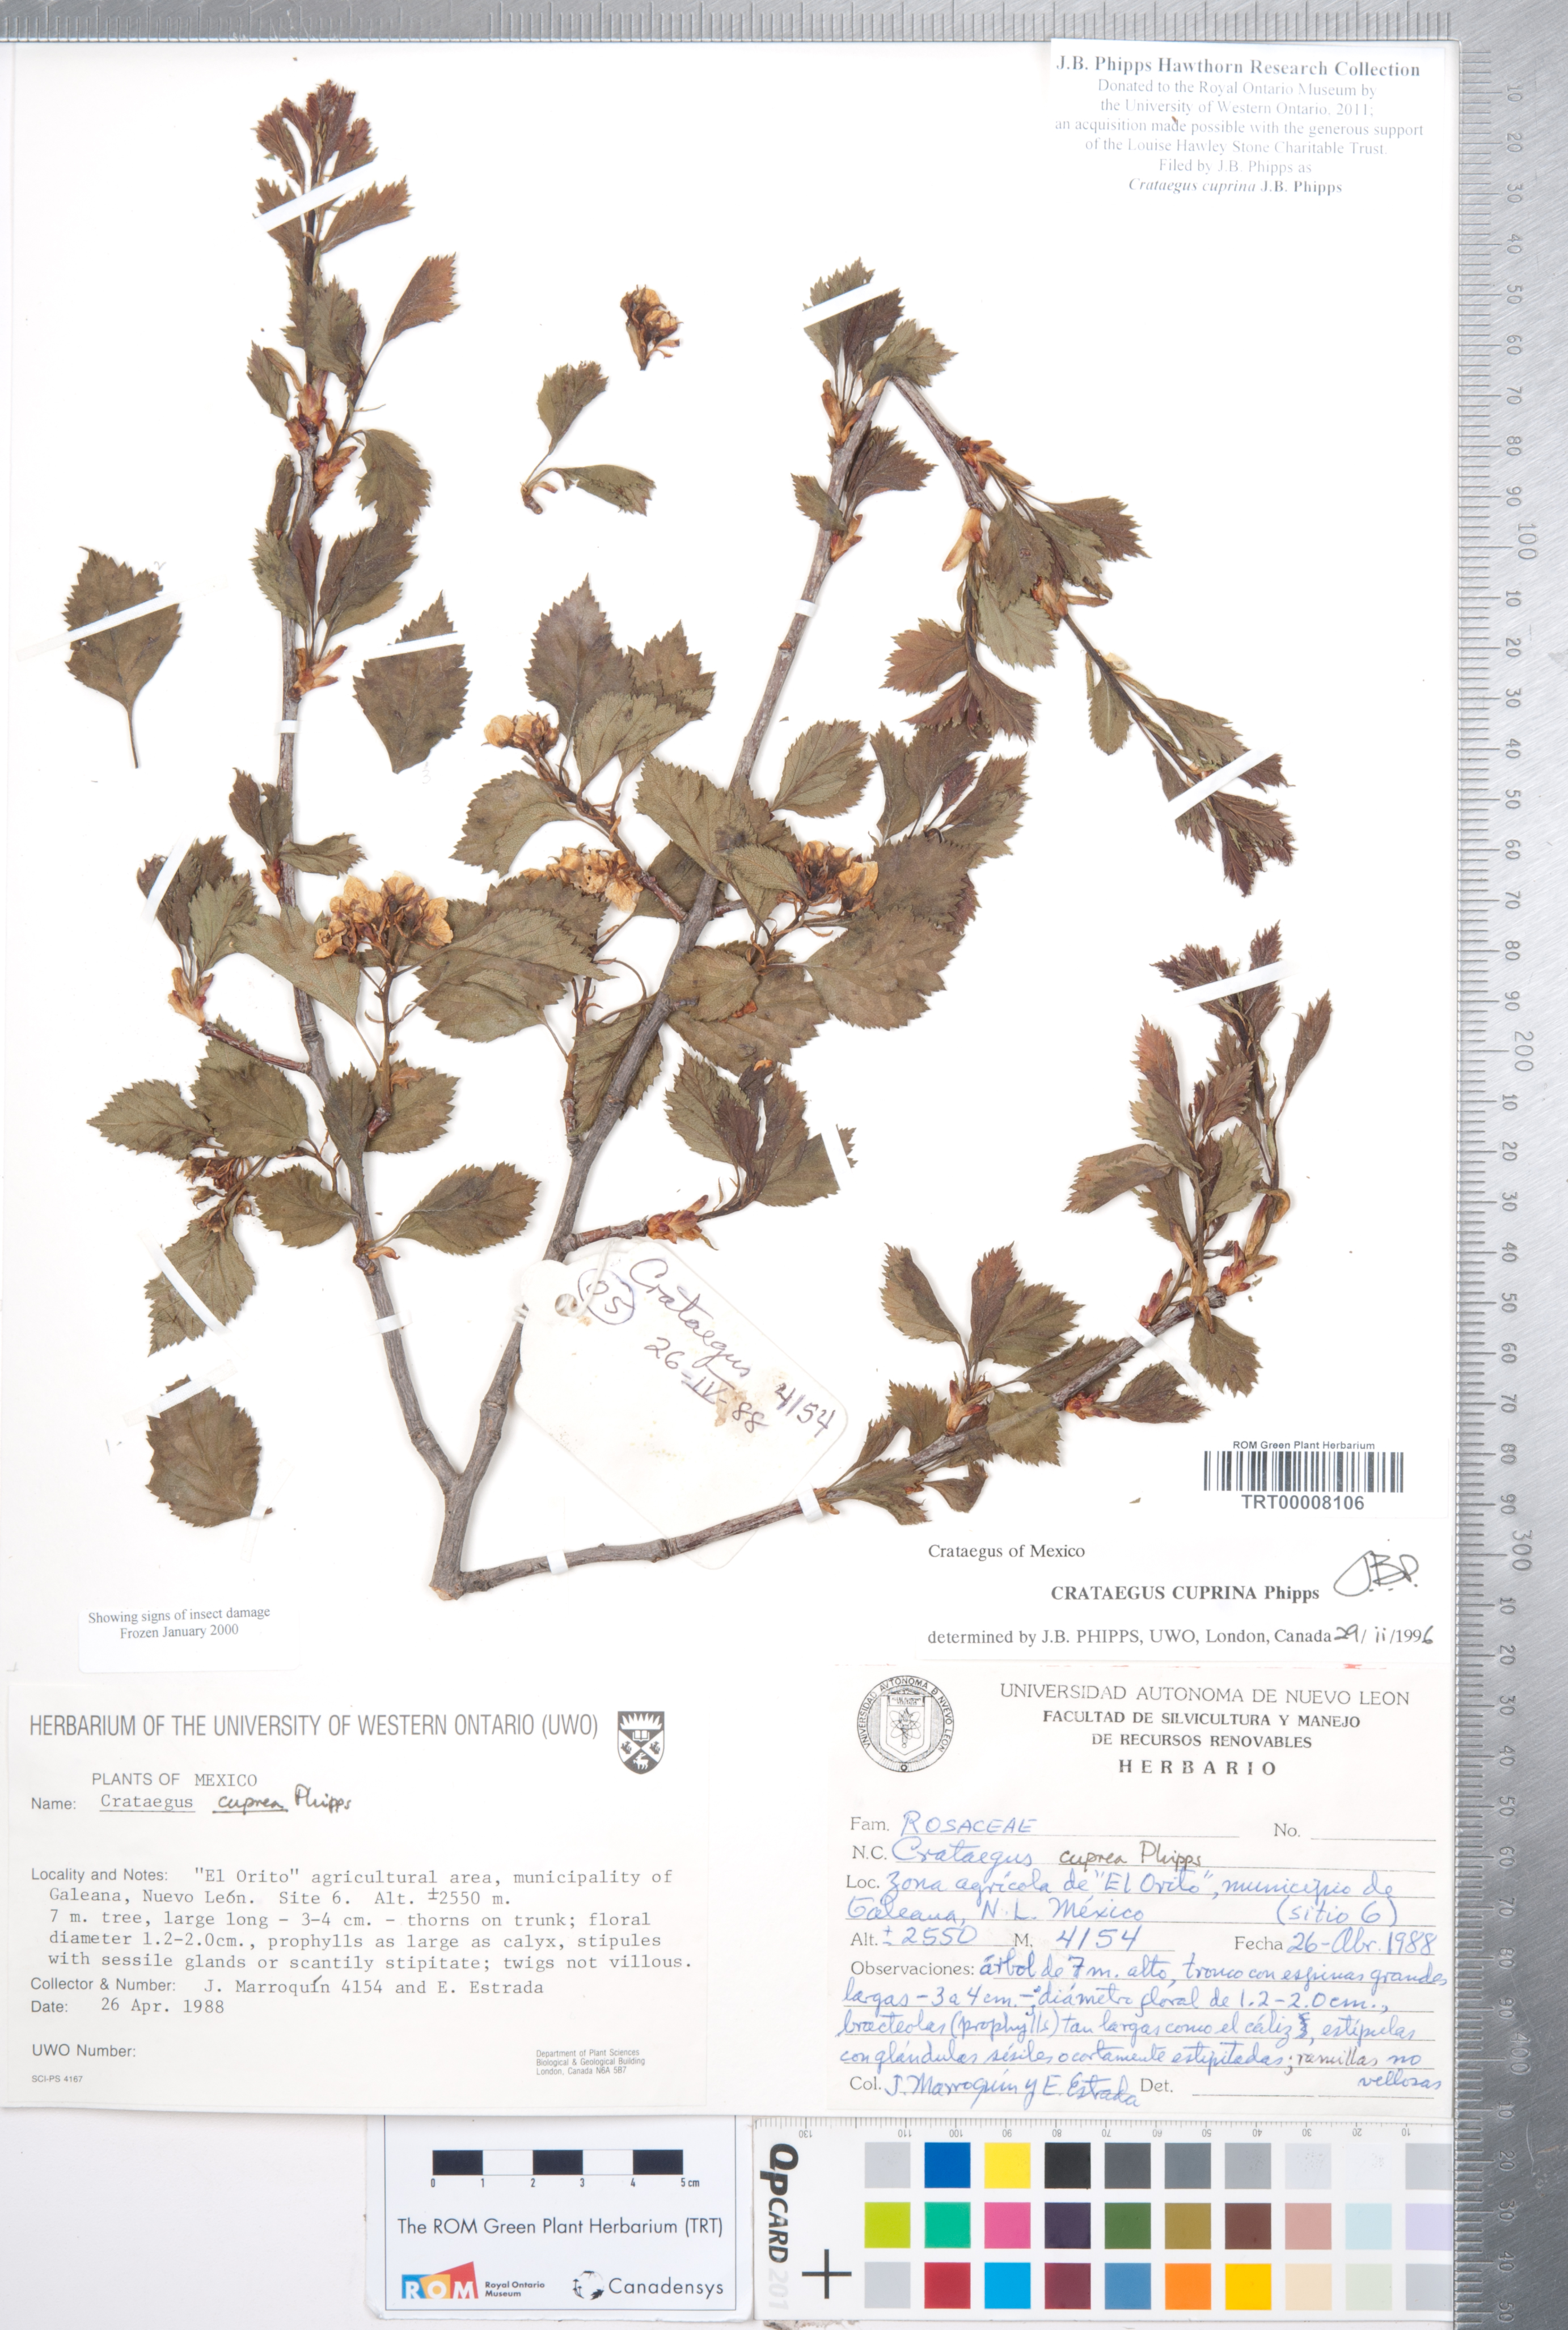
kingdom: Plantae
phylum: Tracheophyta
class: Magnoliopsida
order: Rosales
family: Rosaceae
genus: Crataegus
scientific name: Crataegus cuprina
